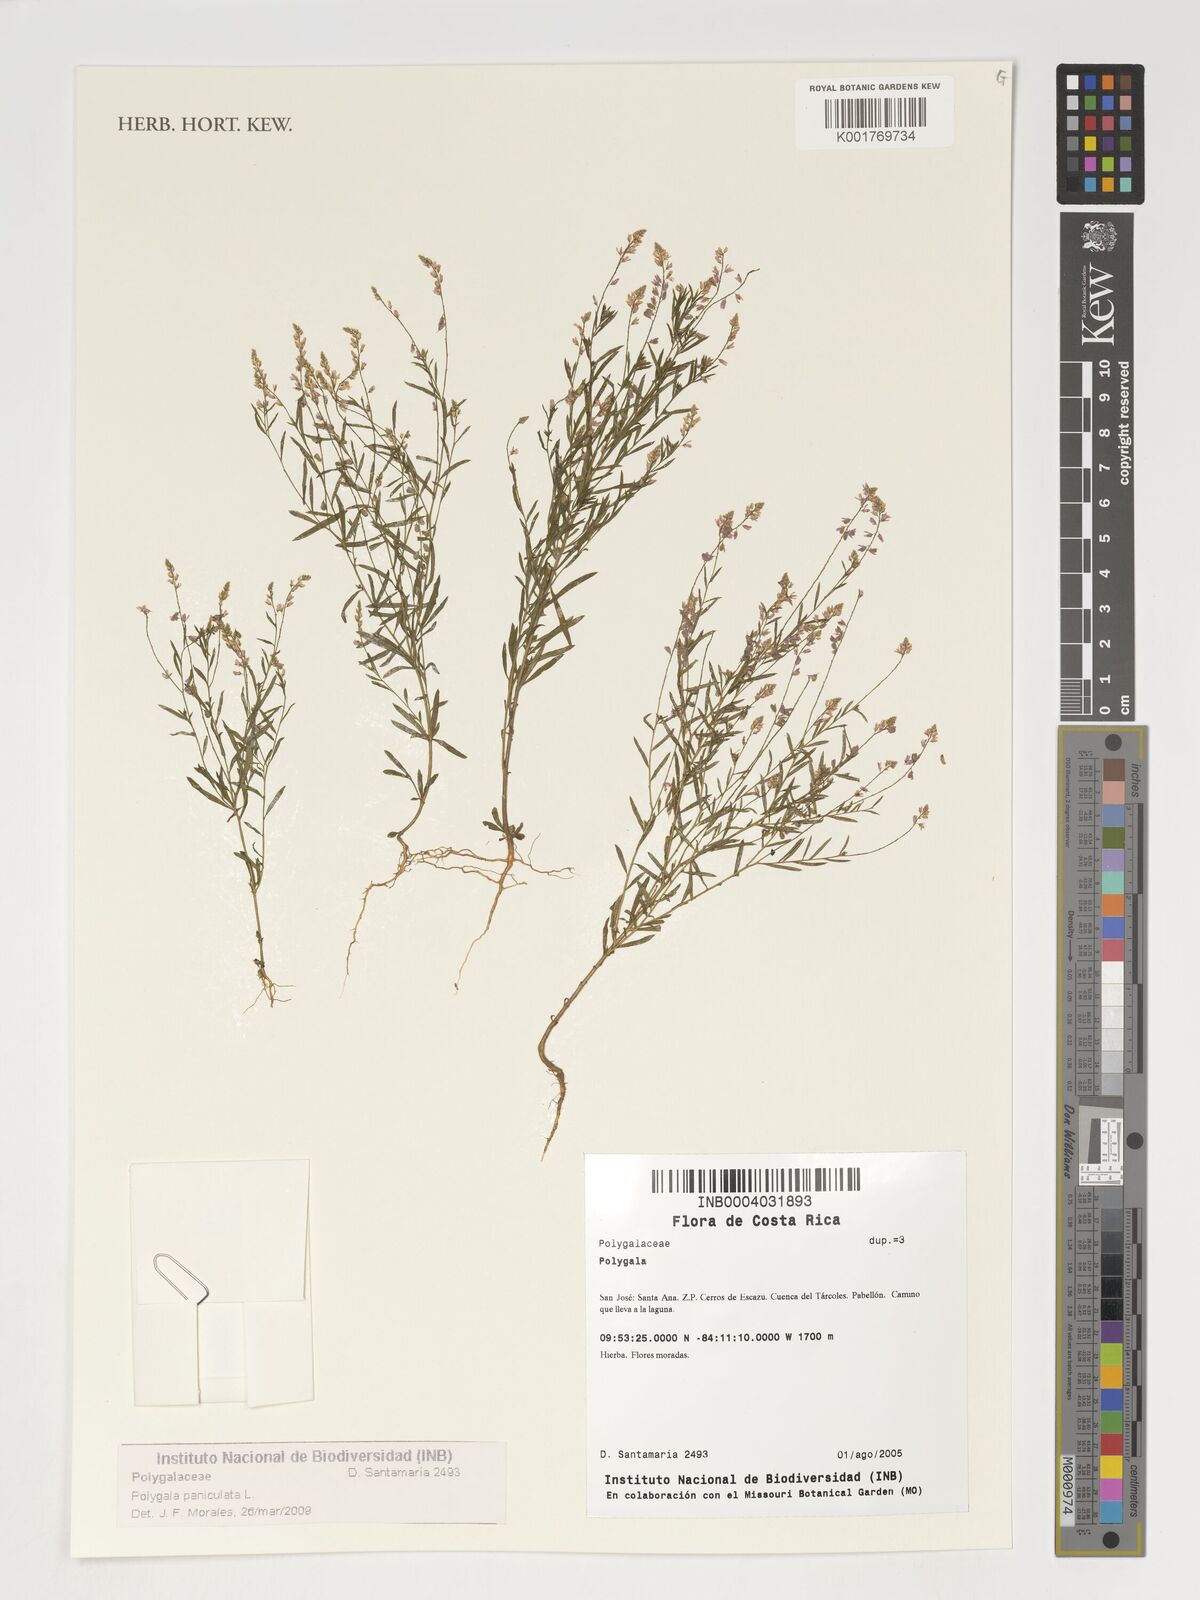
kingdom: Plantae
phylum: Tracheophyta
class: Magnoliopsida
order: Fabales
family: Polygalaceae
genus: Polygala
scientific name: Polygala paniculata
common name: Orosne
